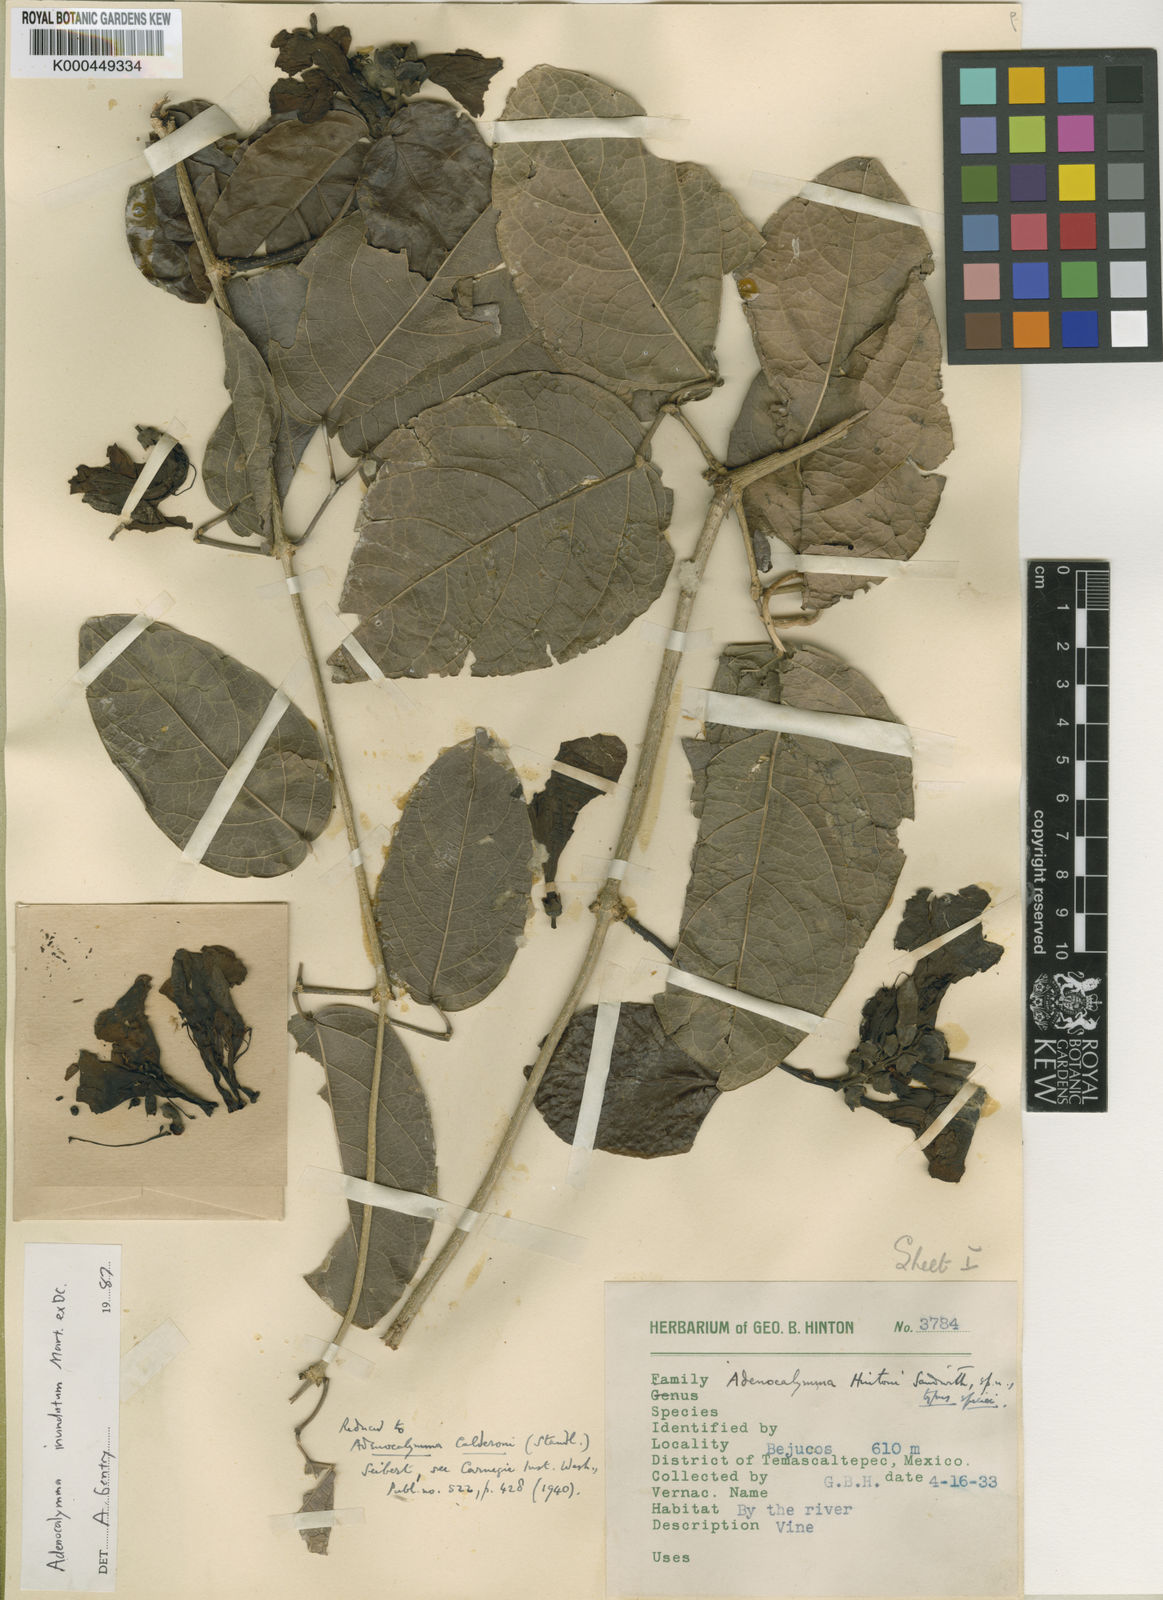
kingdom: Plantae
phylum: Tracheophyta
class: Magnoliopsida
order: Lamiales
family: Bignoniaceae
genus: Adenocalymma
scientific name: Adenocalymma inundatum
